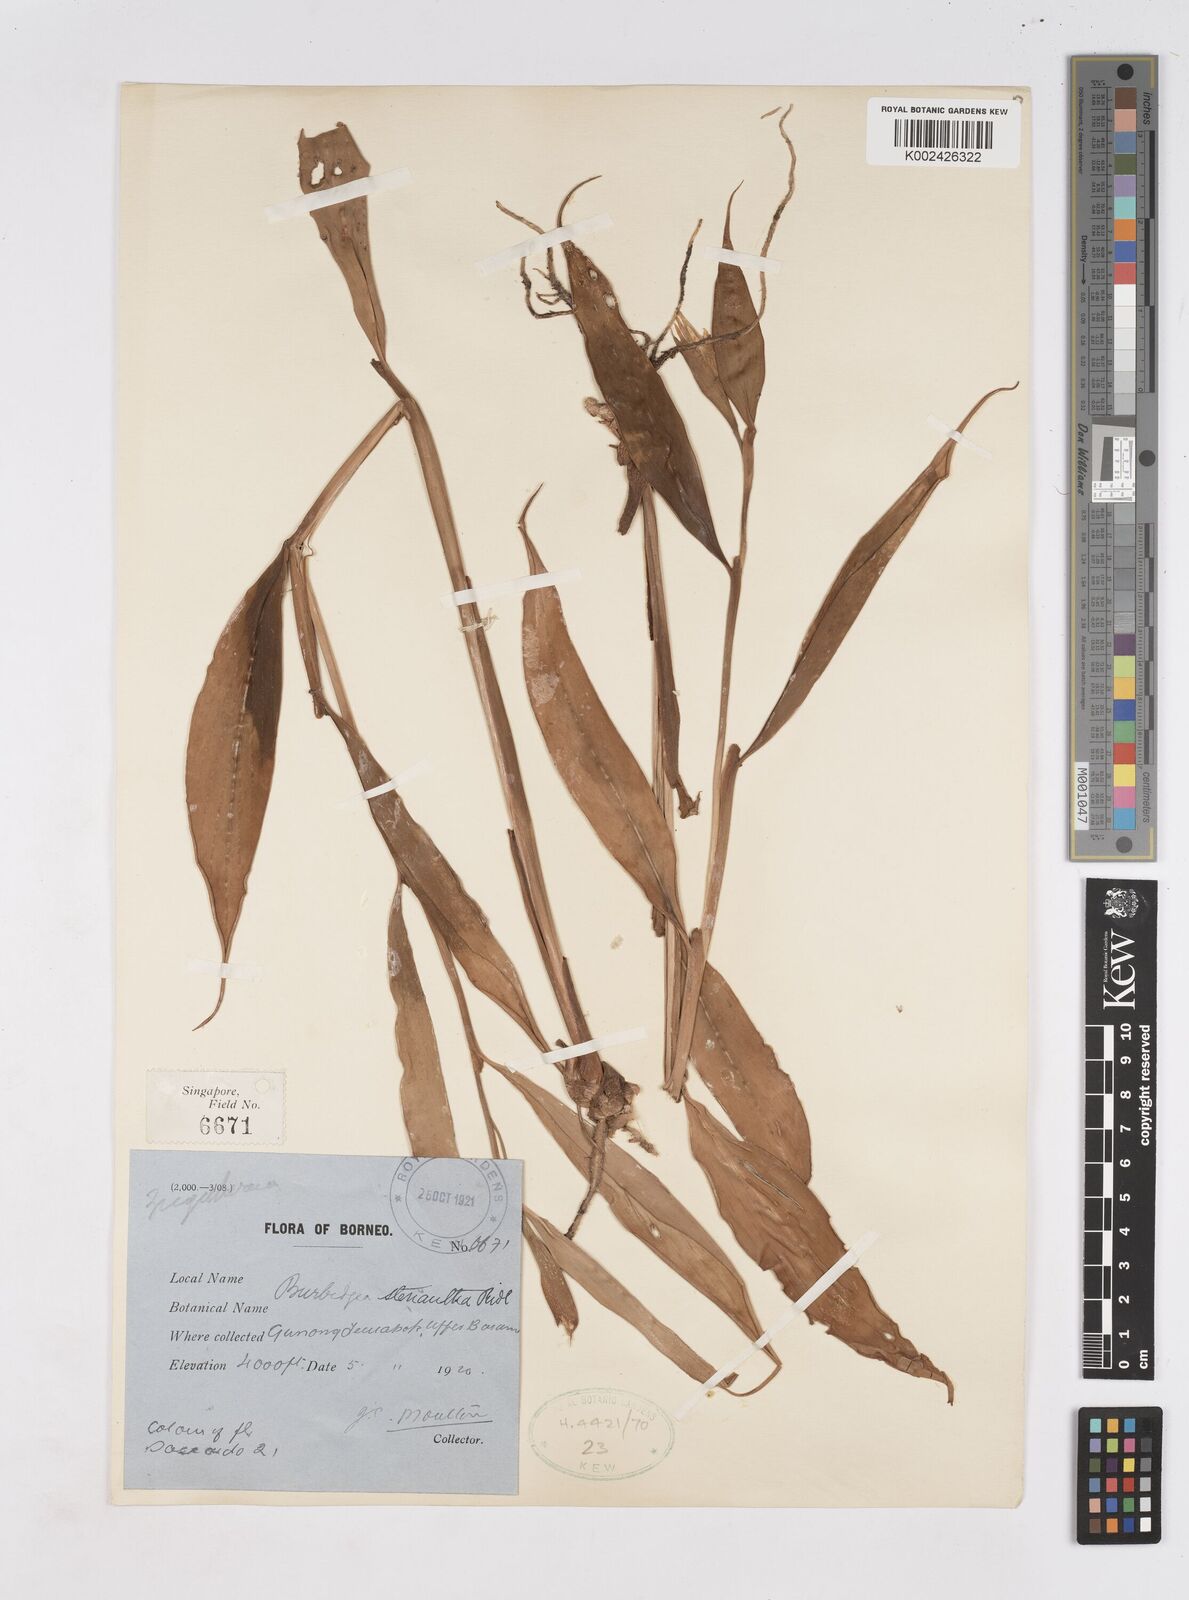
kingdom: Plantae
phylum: Tracheophyta
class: Liliopsida
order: Zingiberales
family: Zingiberaceae
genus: Burbidgea
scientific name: Burbidgea stenantha
